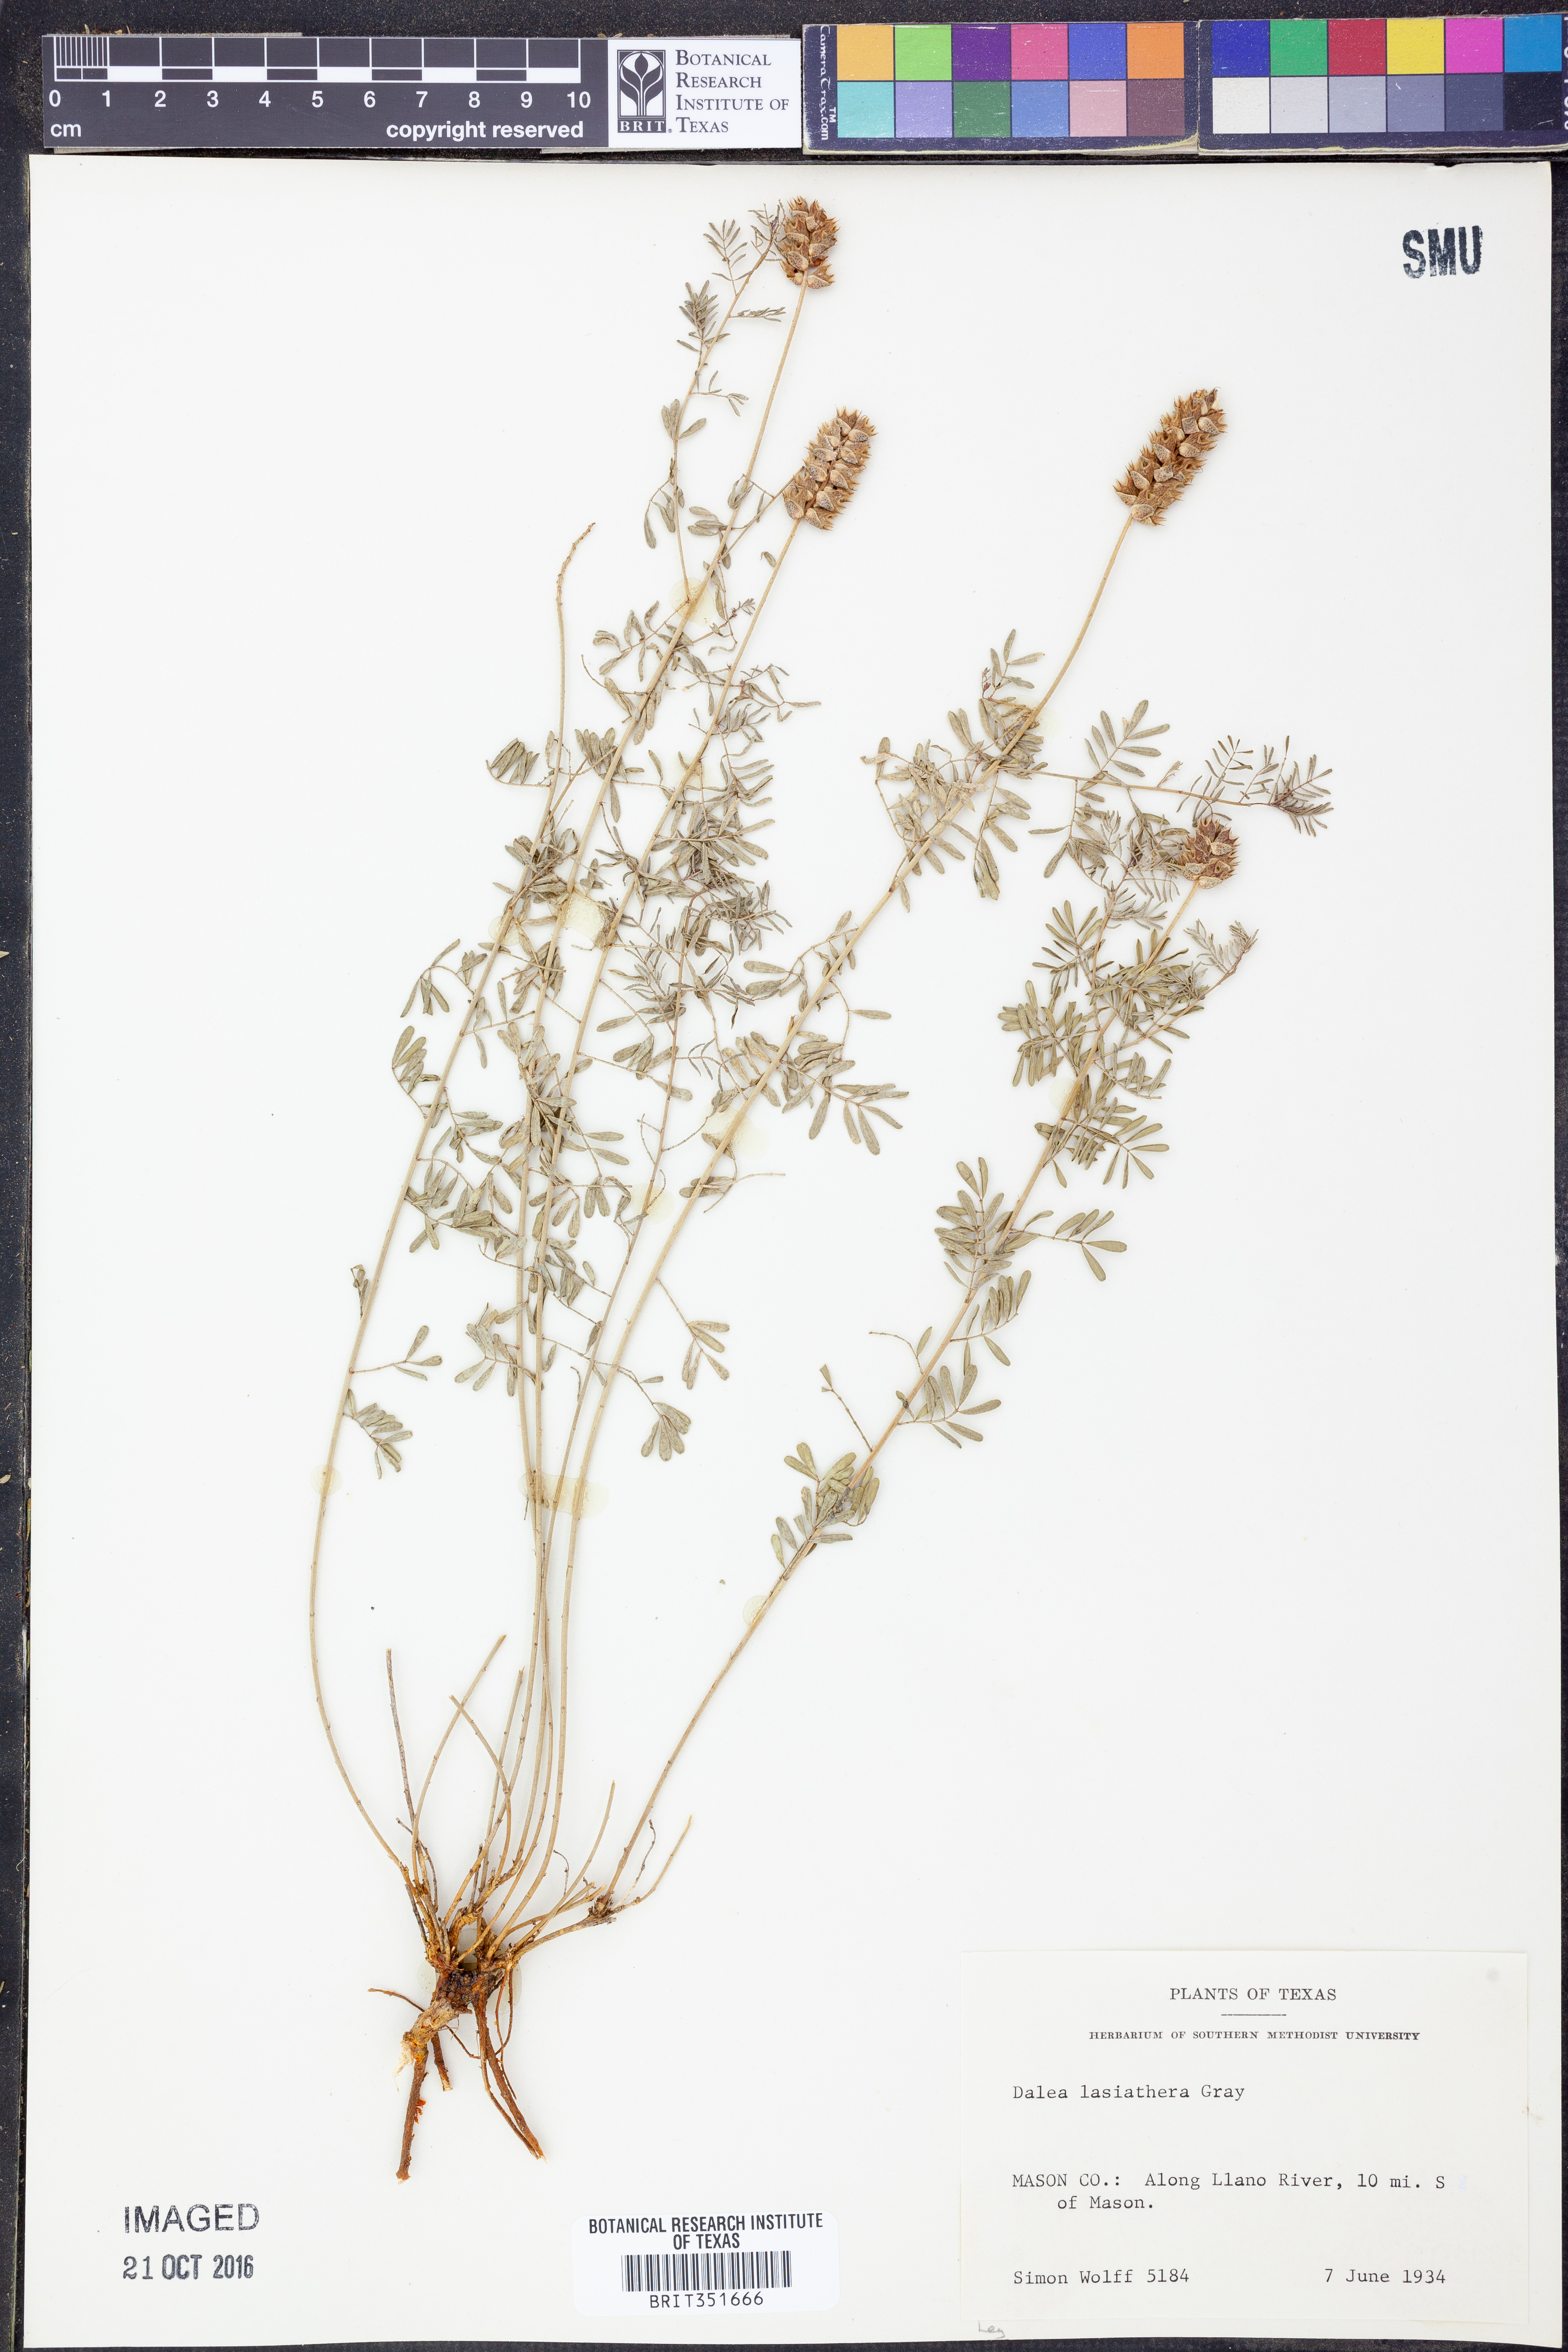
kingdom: Plantae
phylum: Tracheophyta
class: Magnoliopsida
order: Fabales
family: Fabaceae
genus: Dalea
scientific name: Dalea lasiathera
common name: Purple prairie-clover
